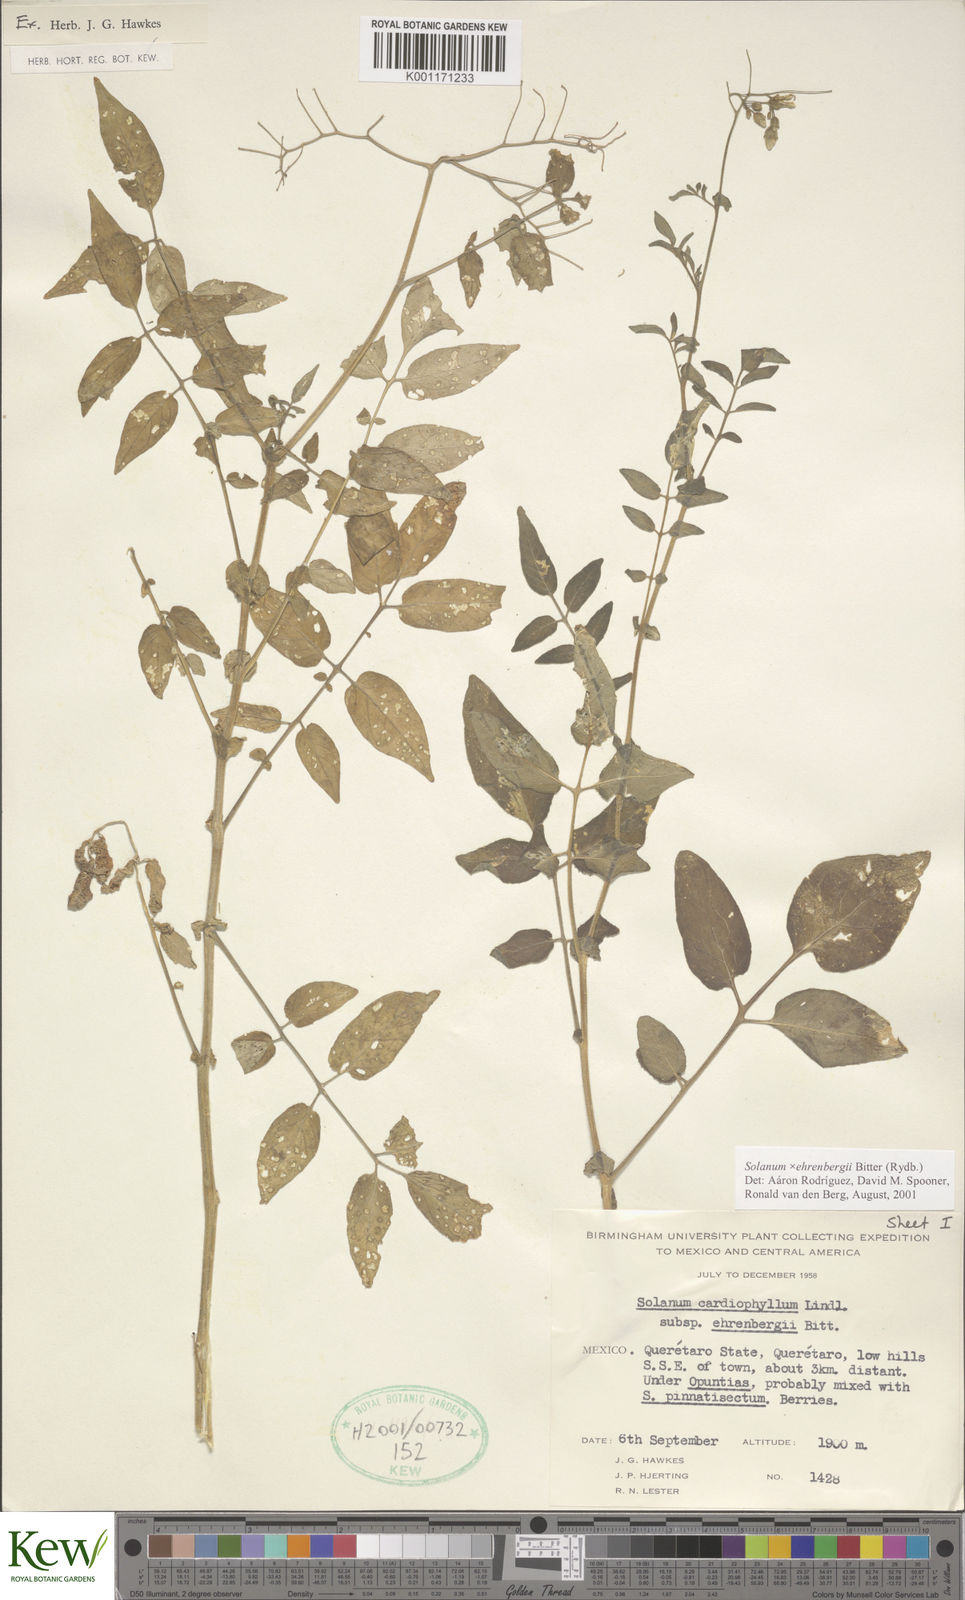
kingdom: Plantae
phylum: Tracheophyta
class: Magnoliopsida
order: Solanales
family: Solanaceae
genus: Solanum
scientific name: Solanum edinense
